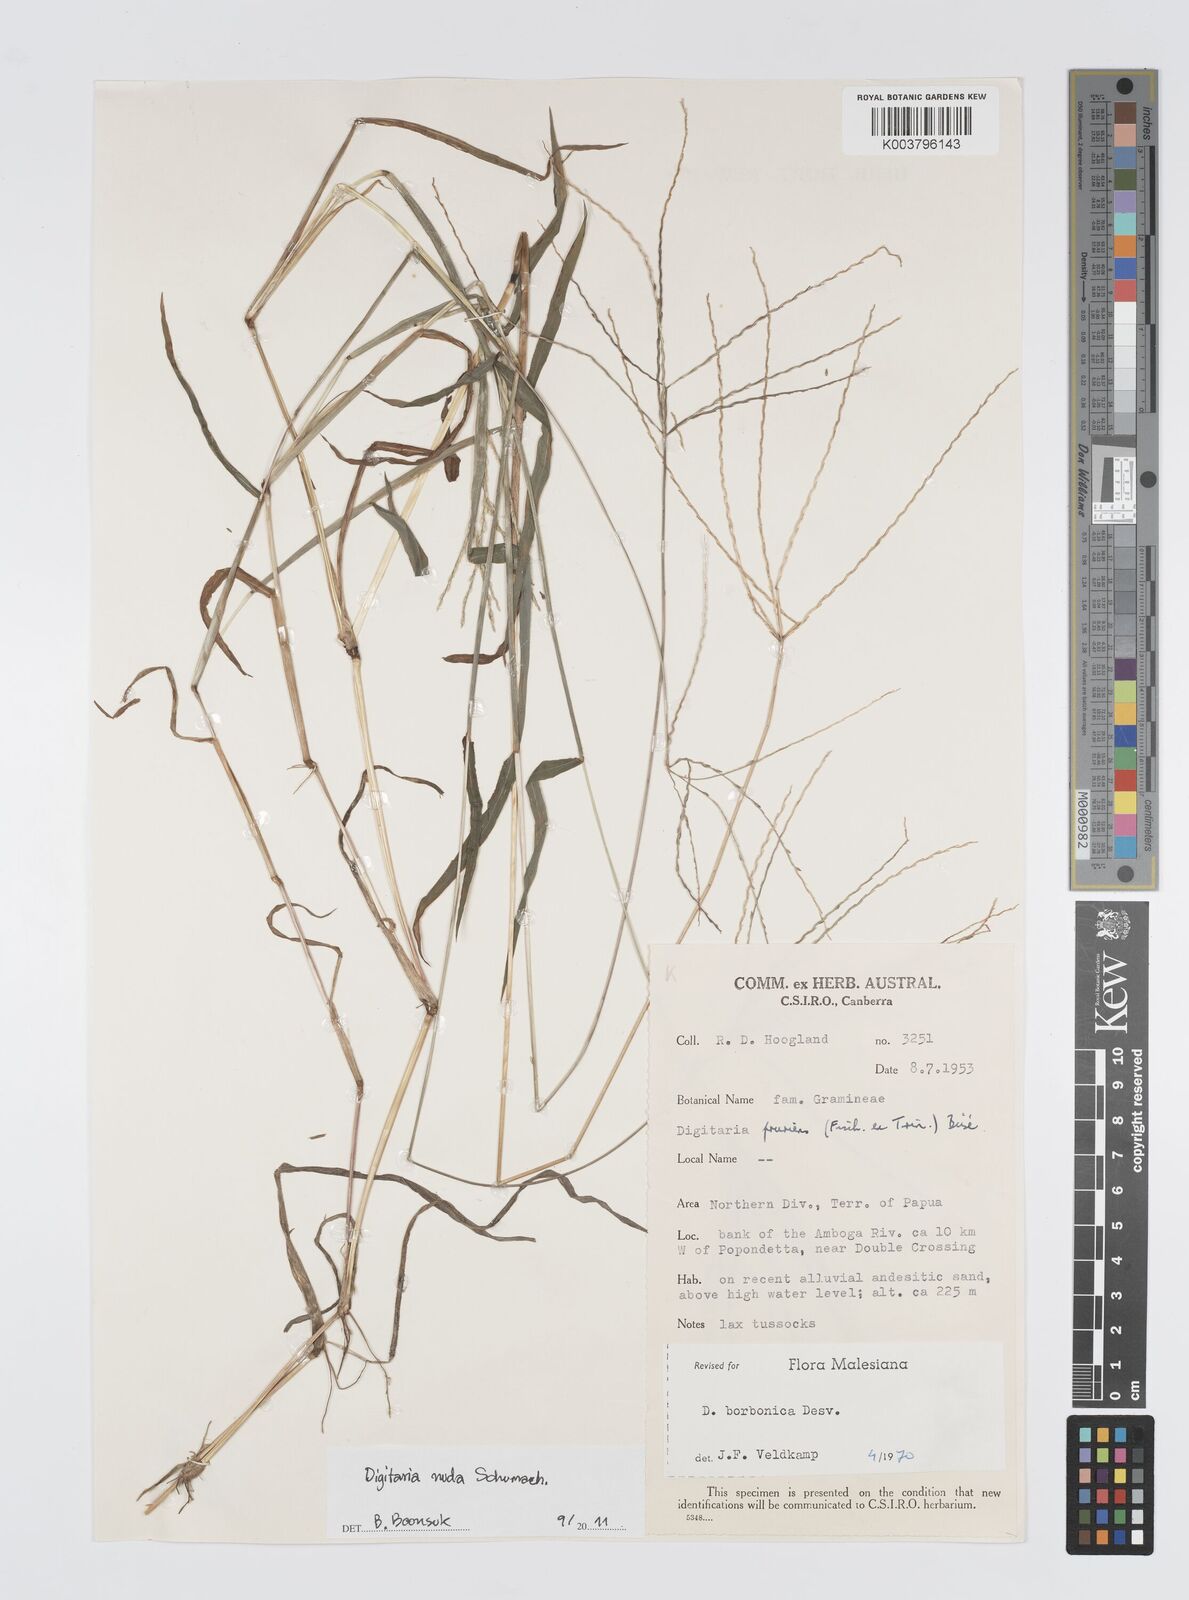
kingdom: Plantae
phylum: Tracheophyta
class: Liliopsida
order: Poales
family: Poaceae
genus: Digitaria
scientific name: Digitaria nuda
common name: Naked crabgrass
